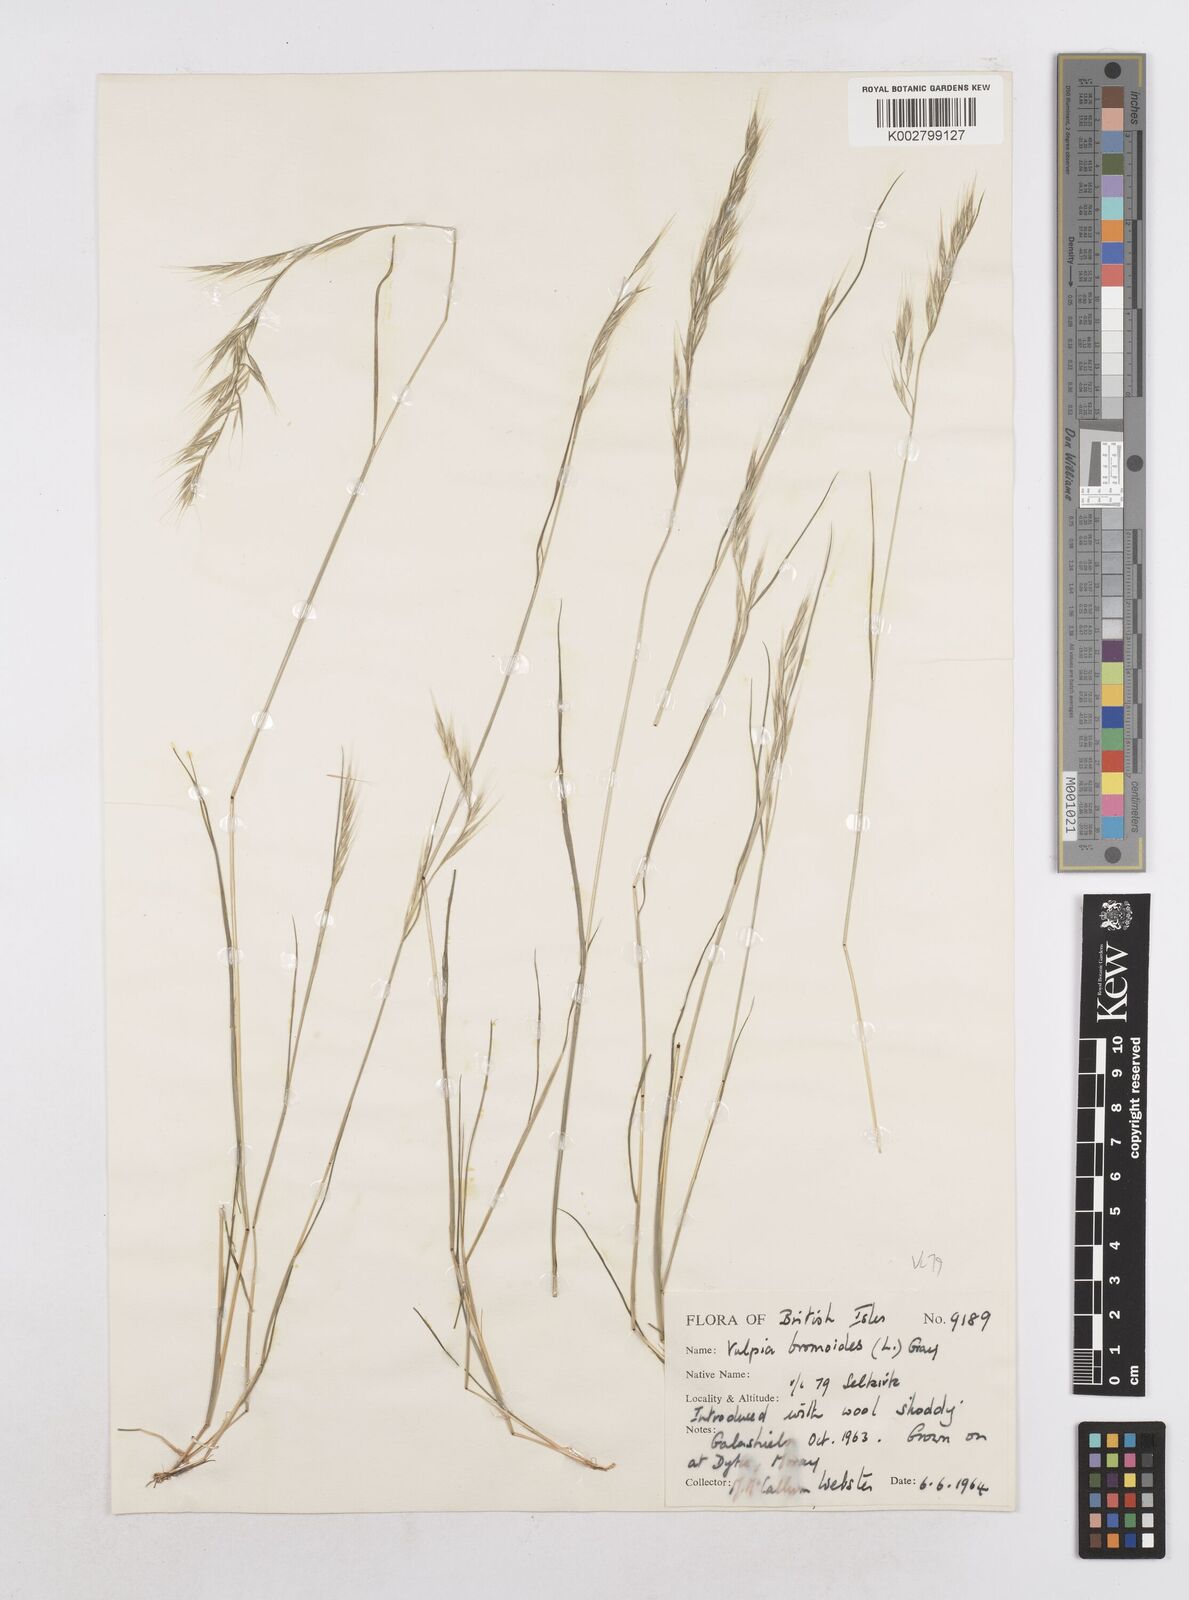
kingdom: Plantae
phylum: Tracheophyta
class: Liliopsida
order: Poales
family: Poaceae
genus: Festuca
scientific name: Festuca bromoides
